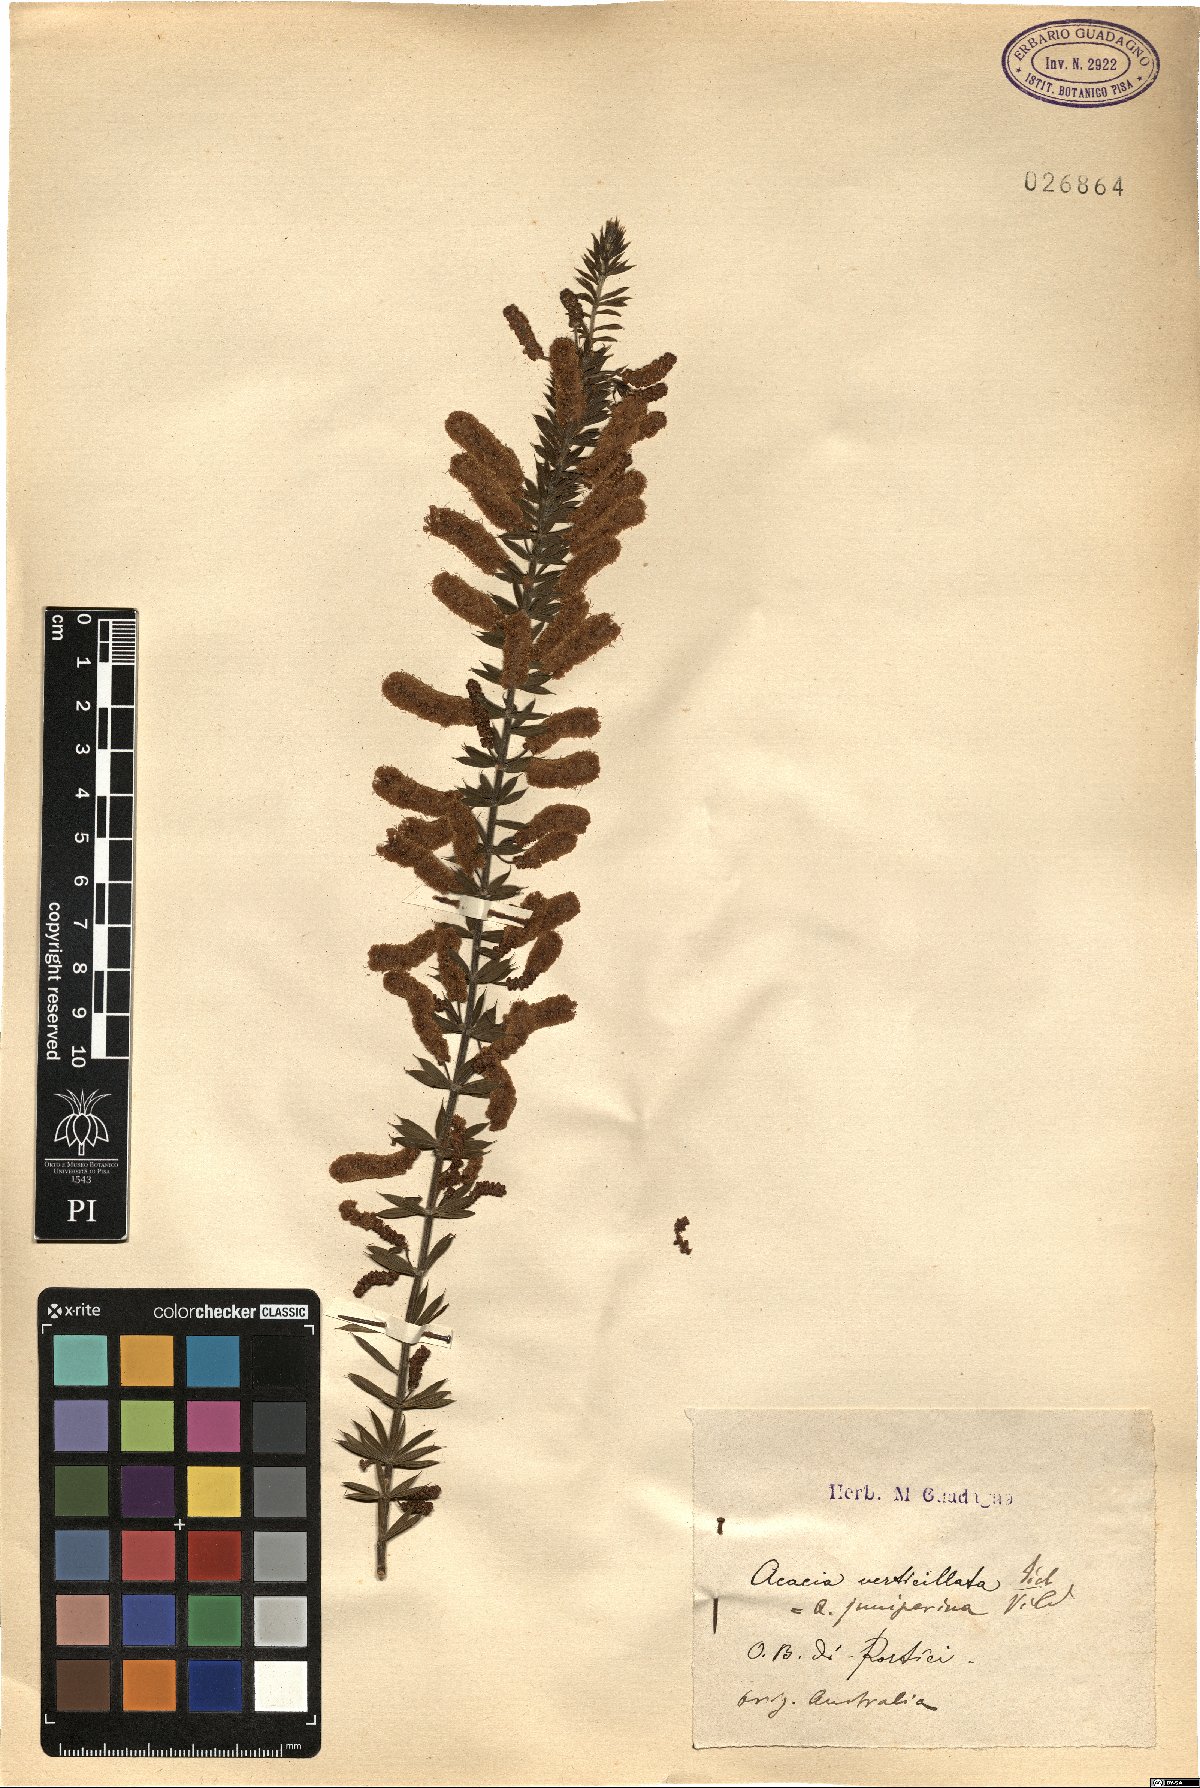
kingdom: Plantae
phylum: Tracheophyta
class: Magnoliopsida
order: Fabales
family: Fabaceae
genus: Acacia
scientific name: Acacia verticillata
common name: Prickly moses
